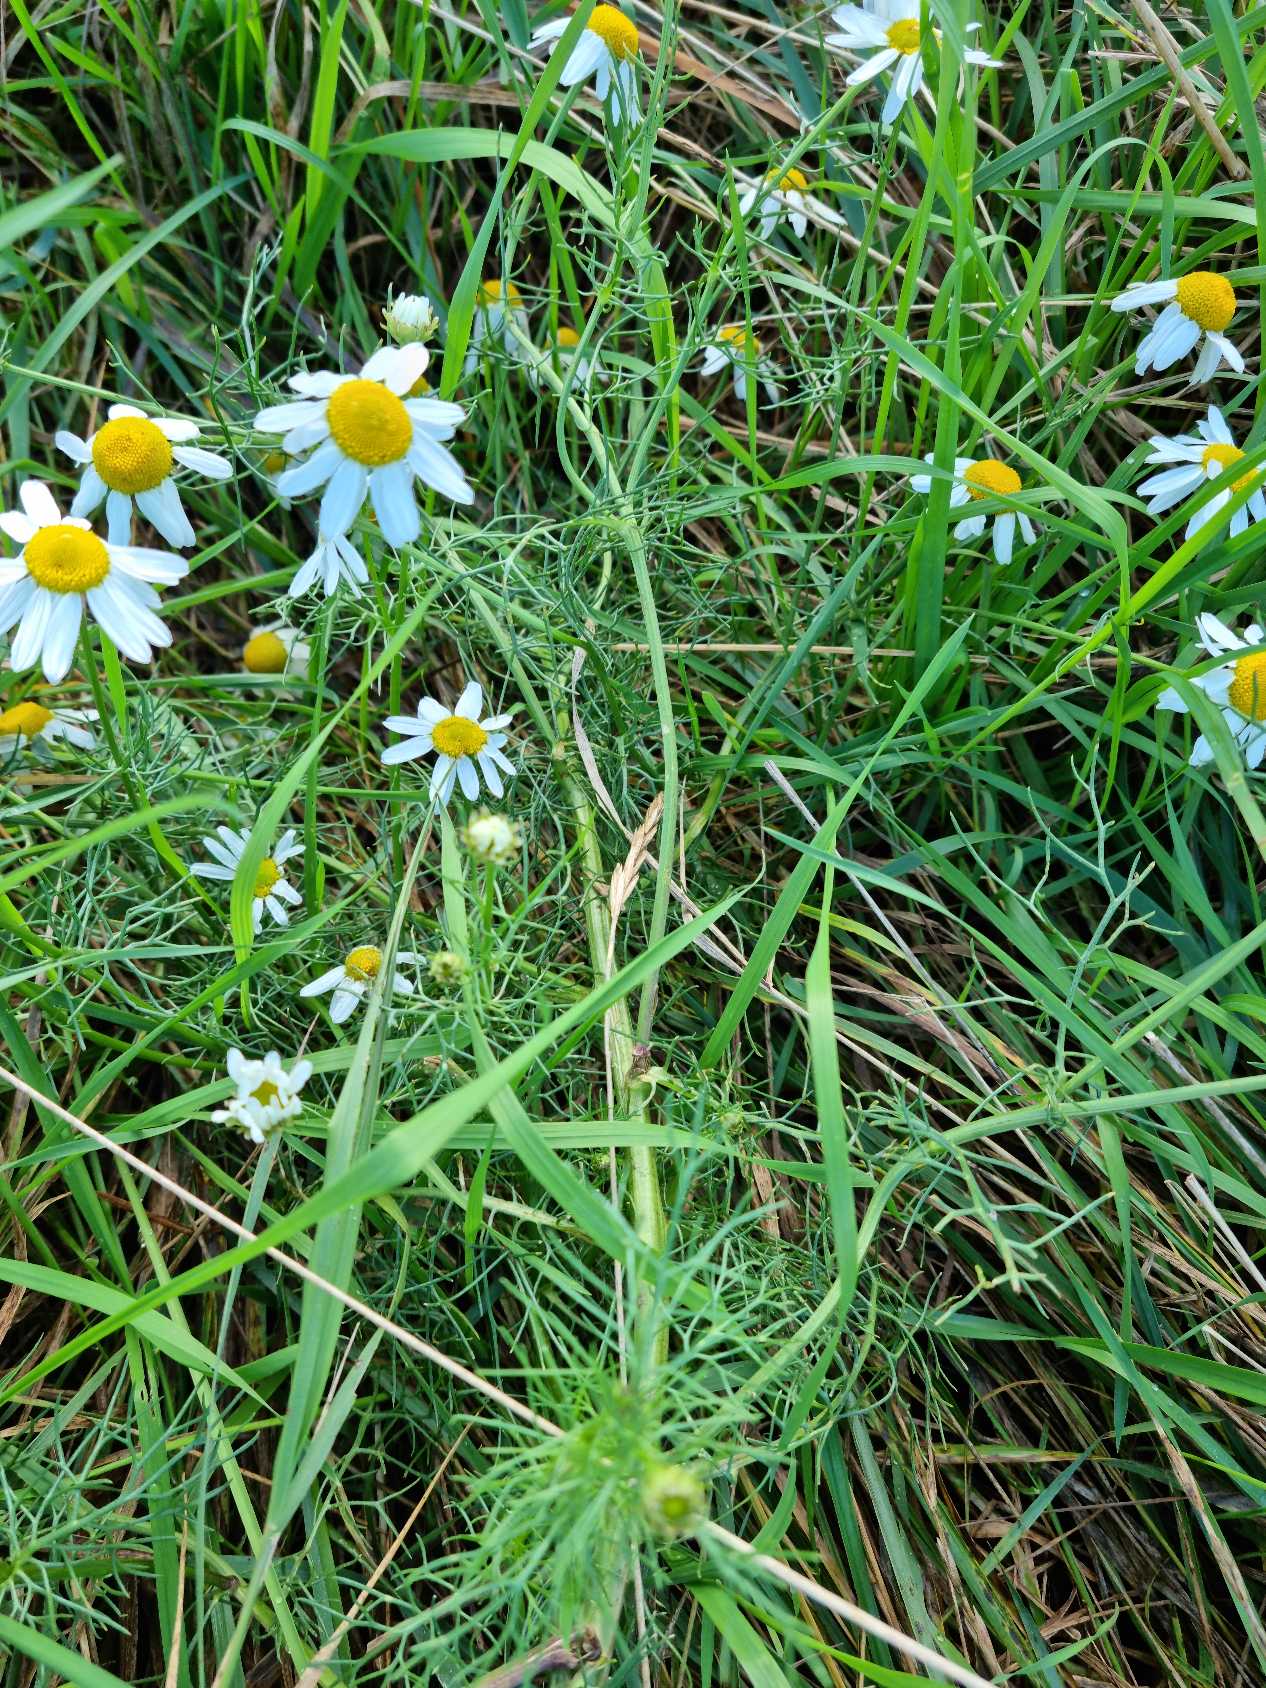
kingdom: Plantae
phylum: Tracheophyta
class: Magnoliopsida
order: Asterales
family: Asteraceae
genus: Tripleurospermum
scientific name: Tripleurospermum inodorum
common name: Lugtløs kamille
